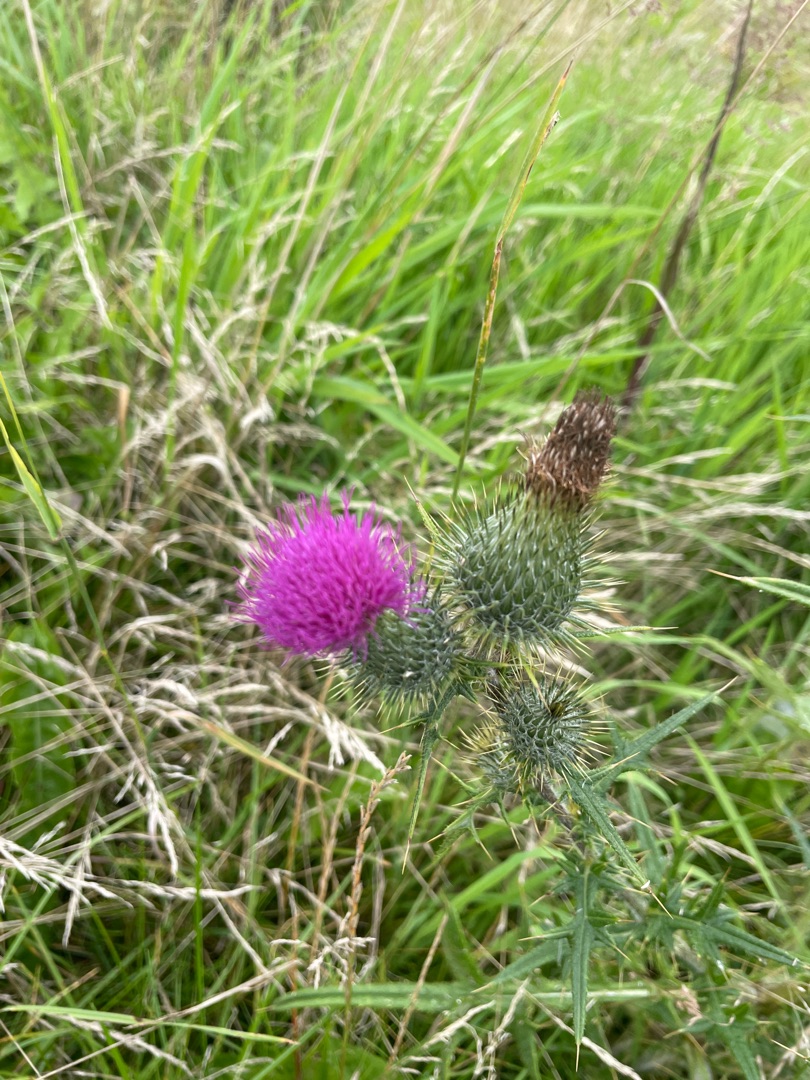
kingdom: Plantae
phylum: Tracheophyta
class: Magnoliopsida
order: Asterales
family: Asteraceae
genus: Cirsium
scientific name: Cirsium vulgare
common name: Horse-tidsel
